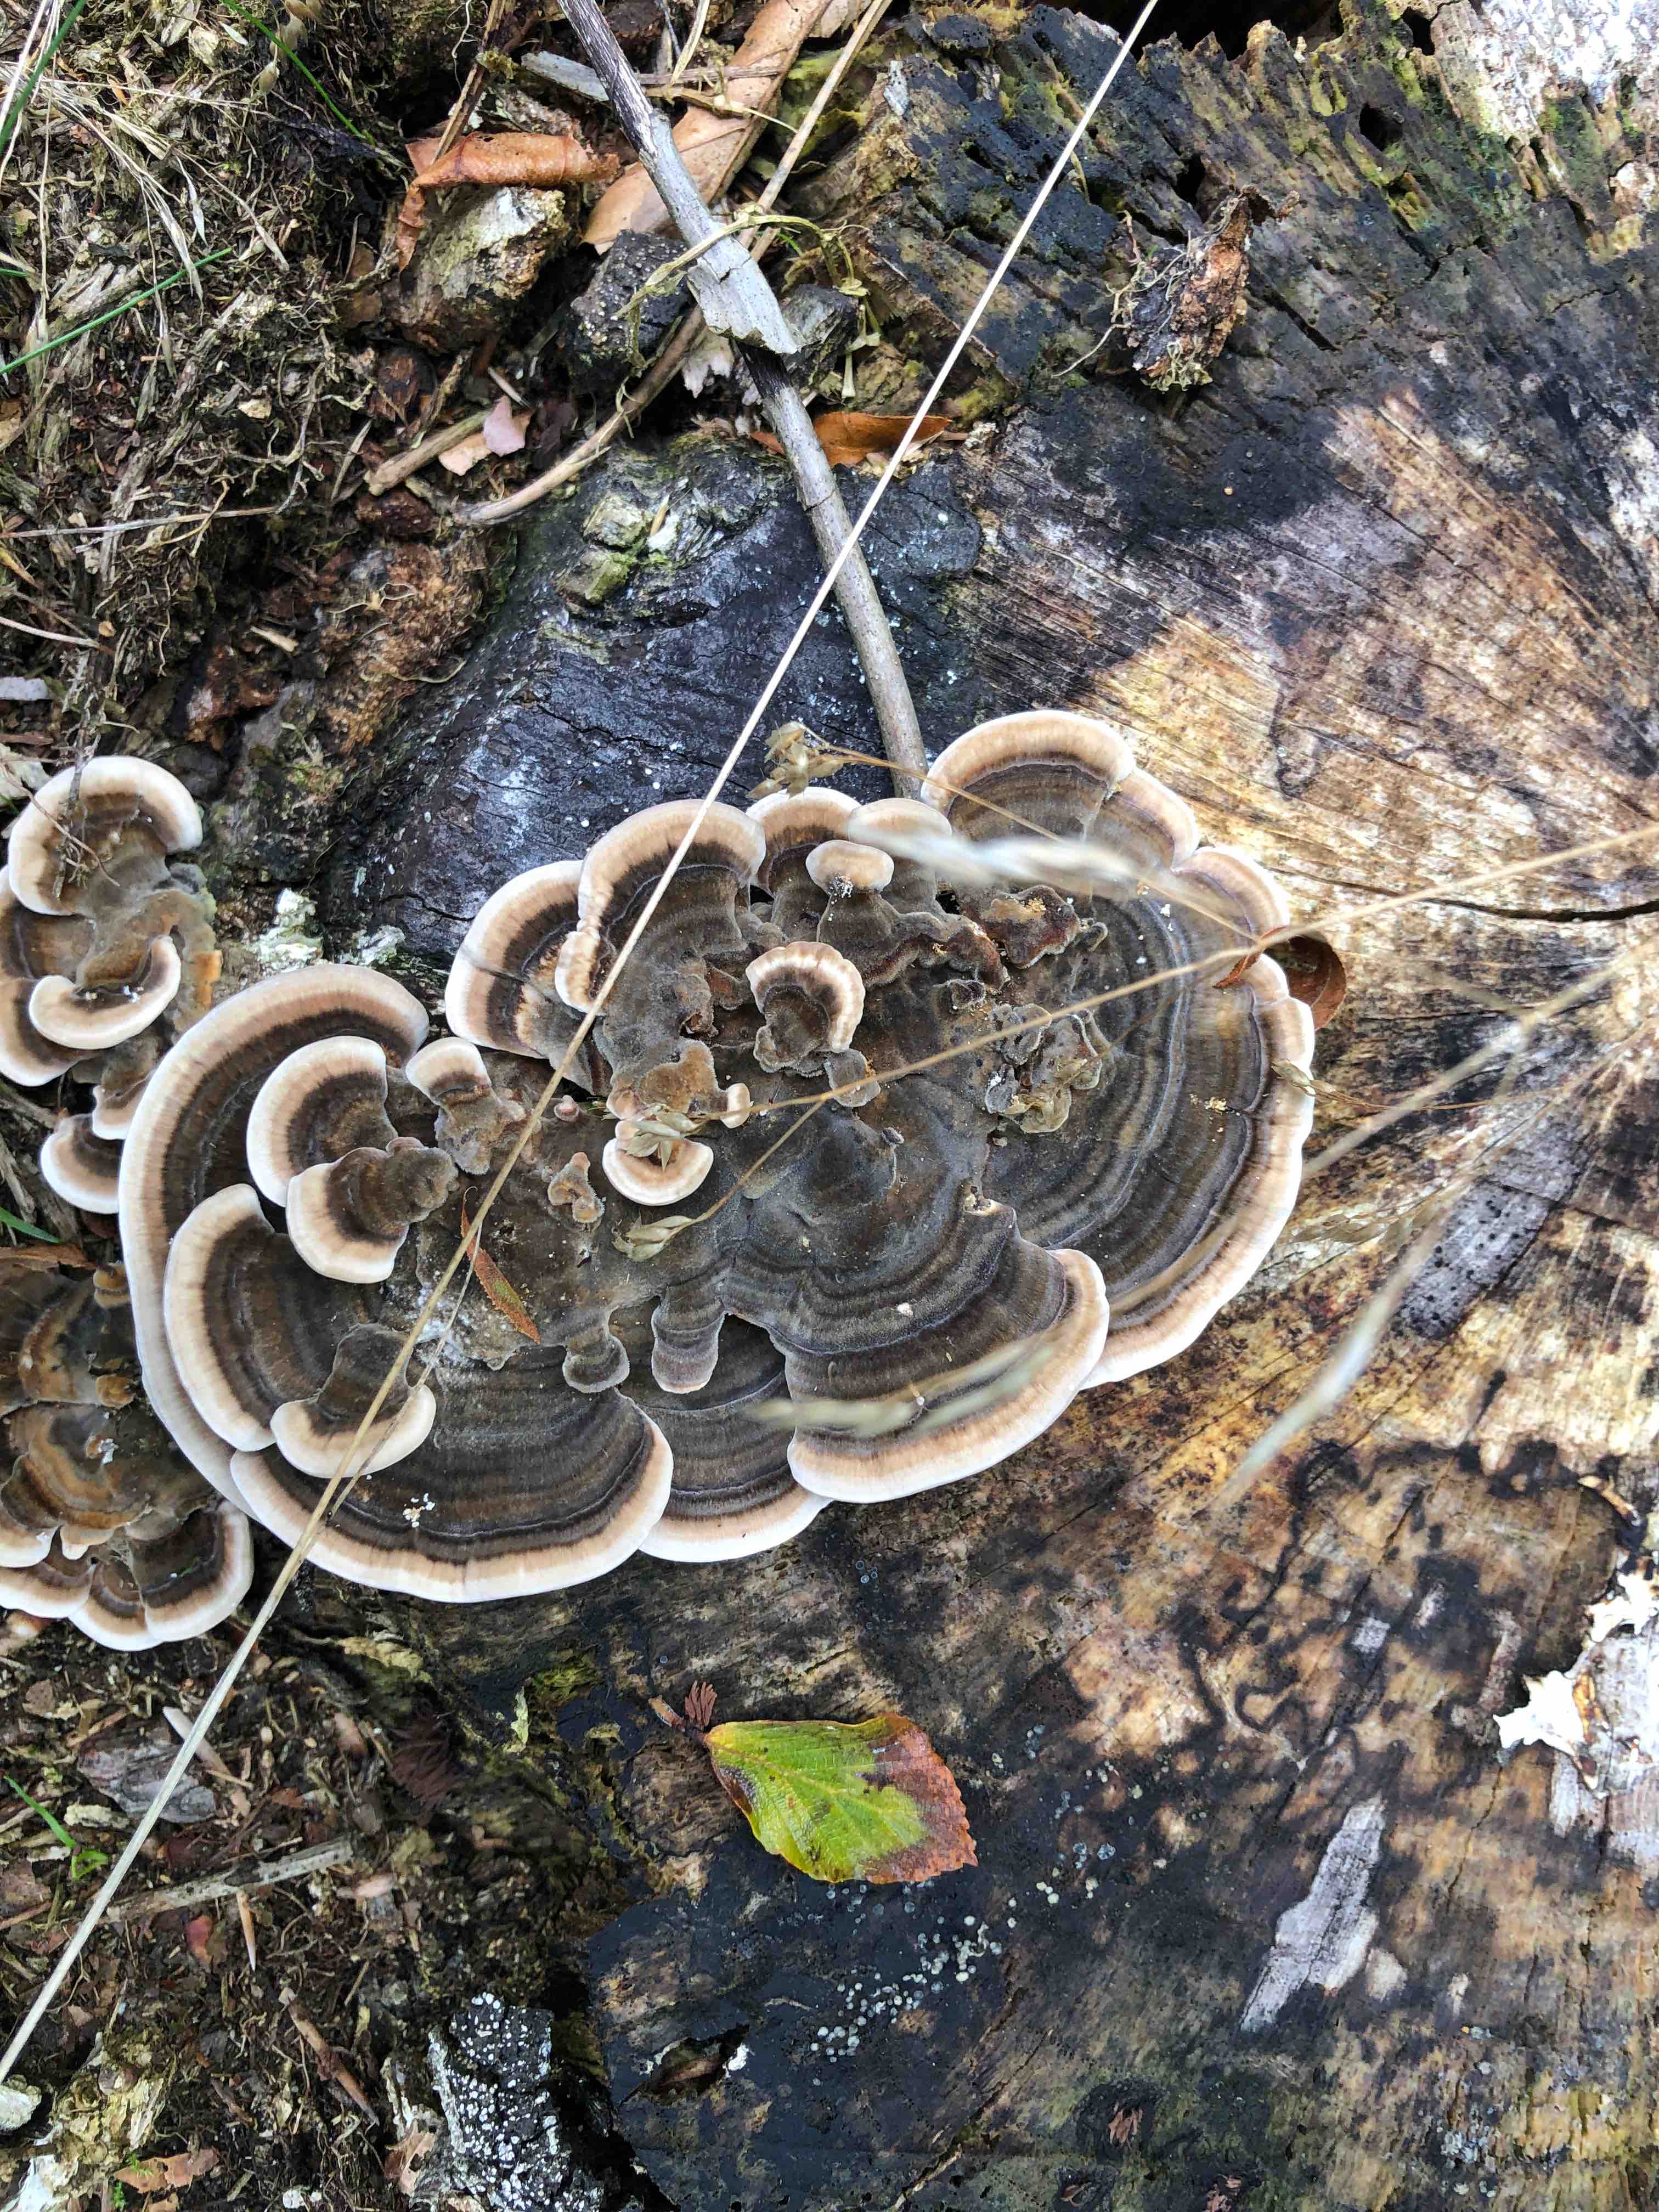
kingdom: Fungi
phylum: Basidiomycota
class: Agaricomycetes
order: Polyporales
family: Polyporaceae
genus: Trametes
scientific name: Trametes versicolor
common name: broget læderporesvamp
